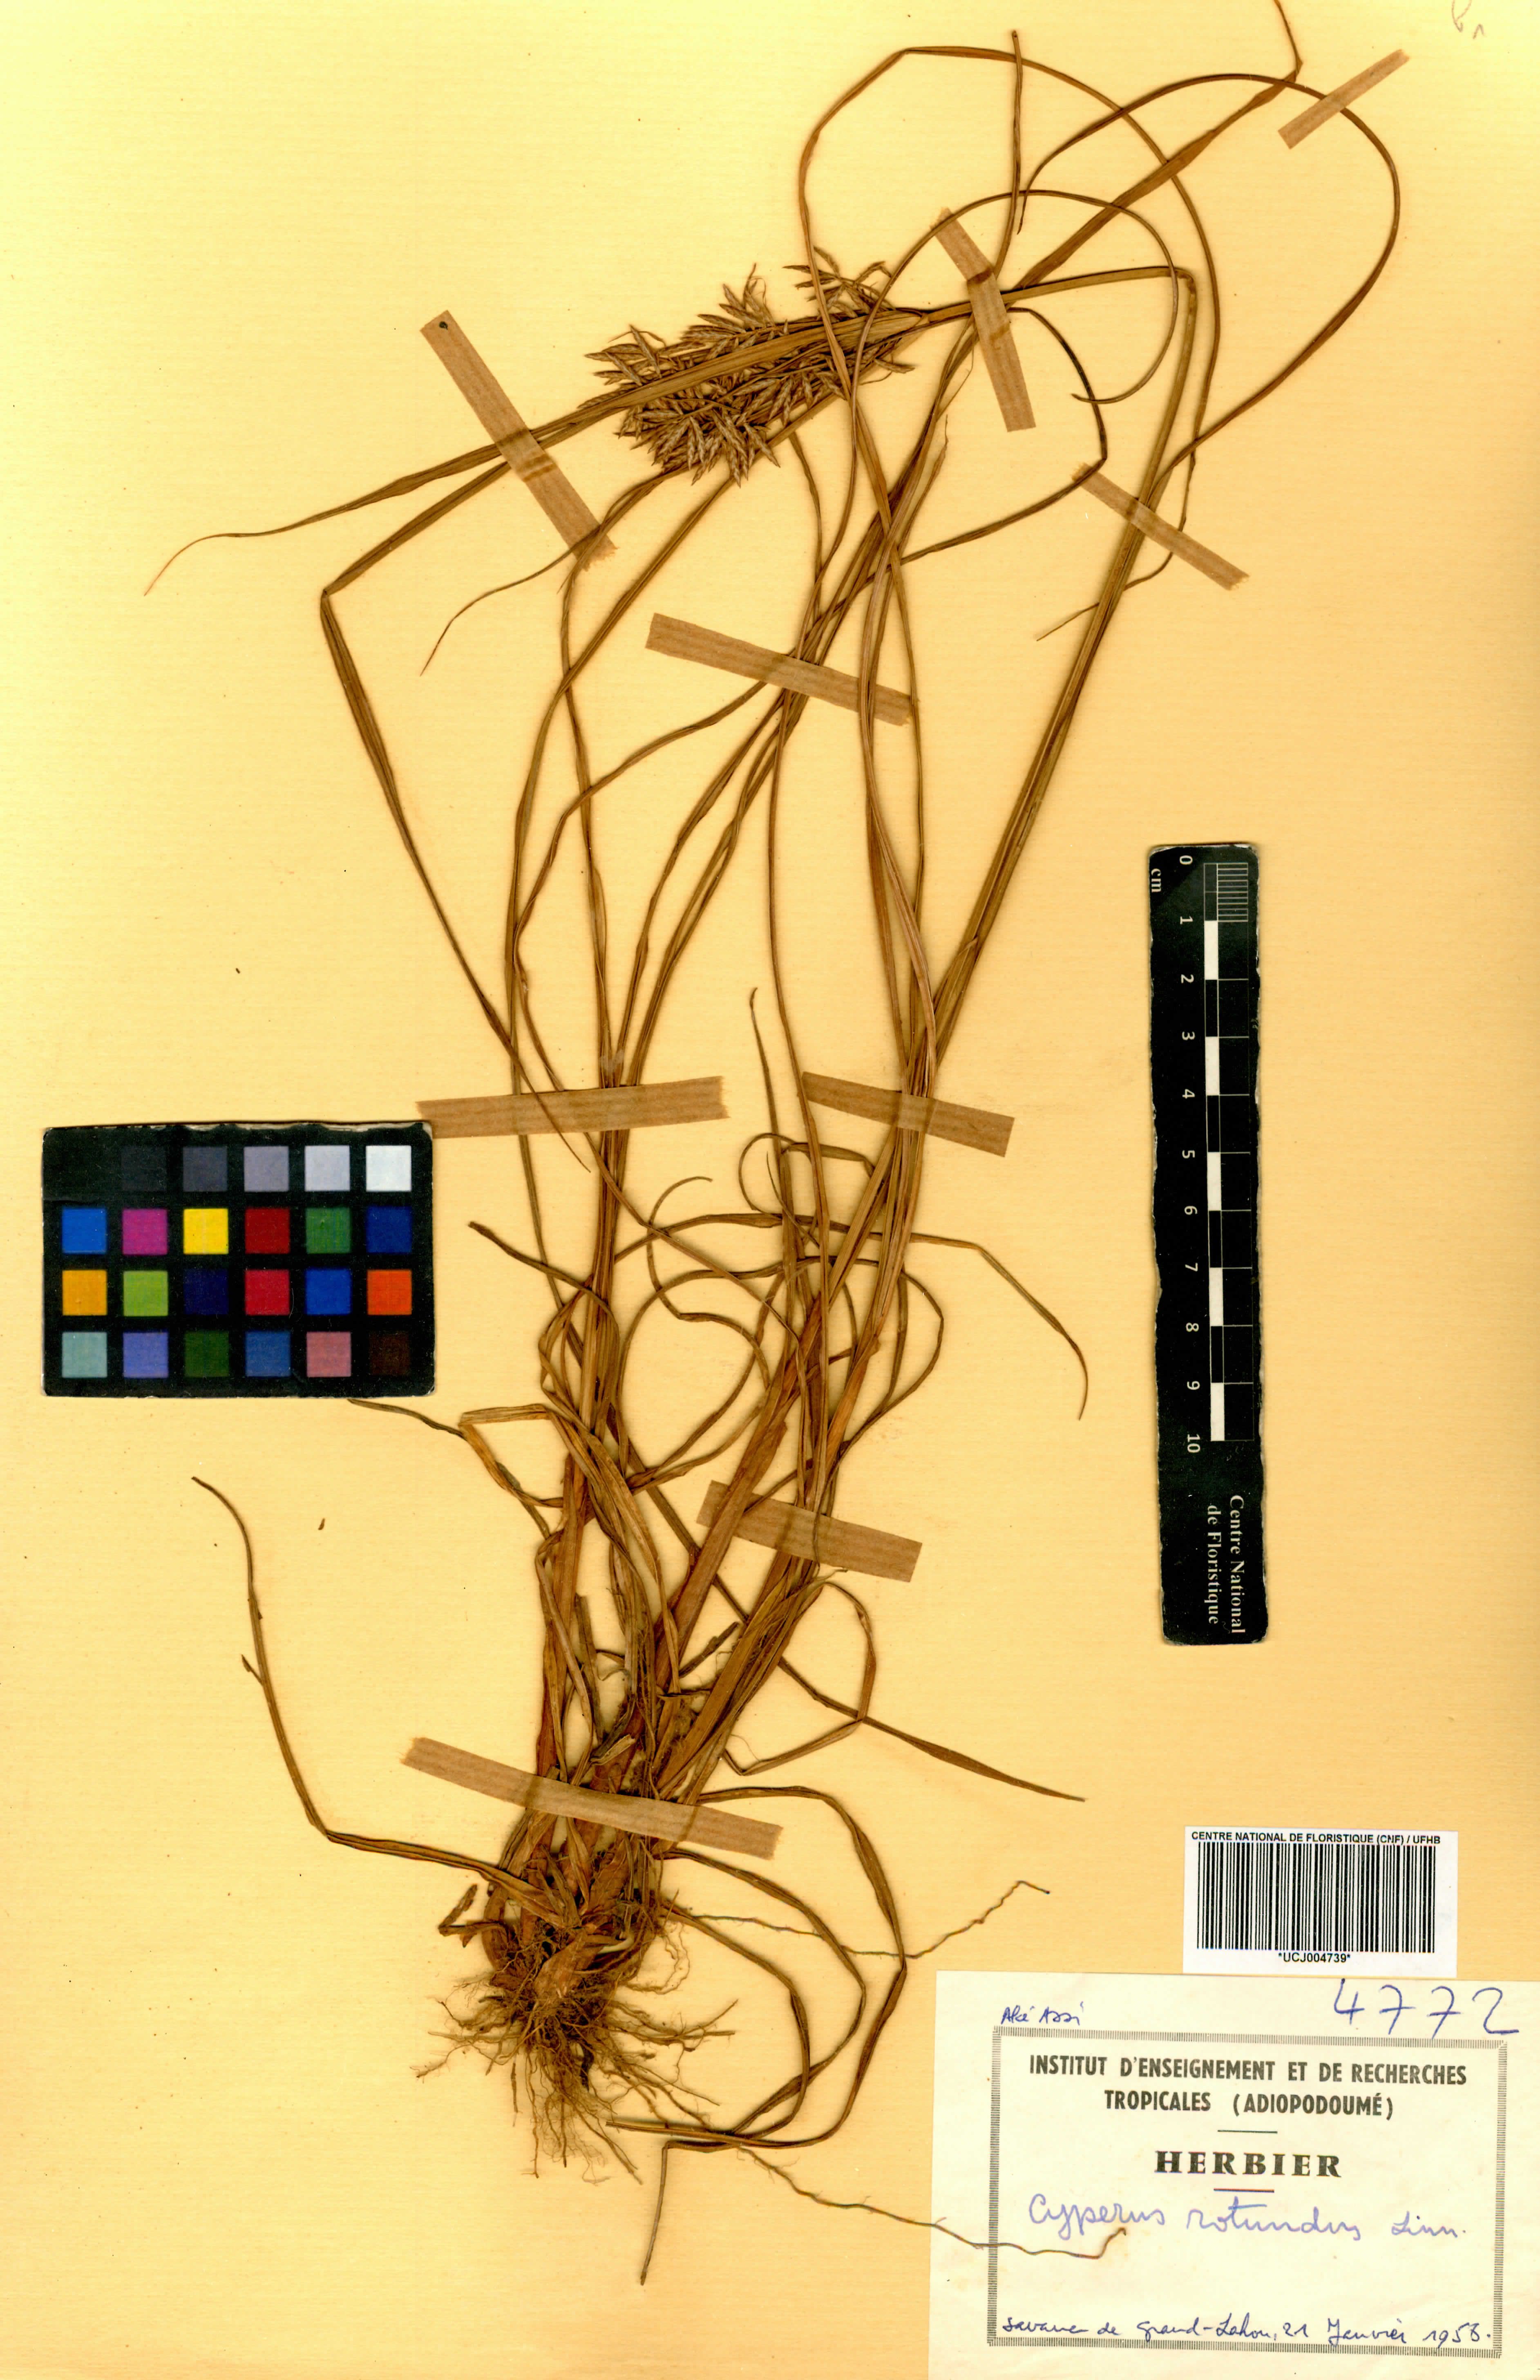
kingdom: Plantae
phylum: Tracheophyta
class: Liliopsida
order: Poales
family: Cyperaceae
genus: Cyperus
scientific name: Cyperus rotundus
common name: Nutgrass
